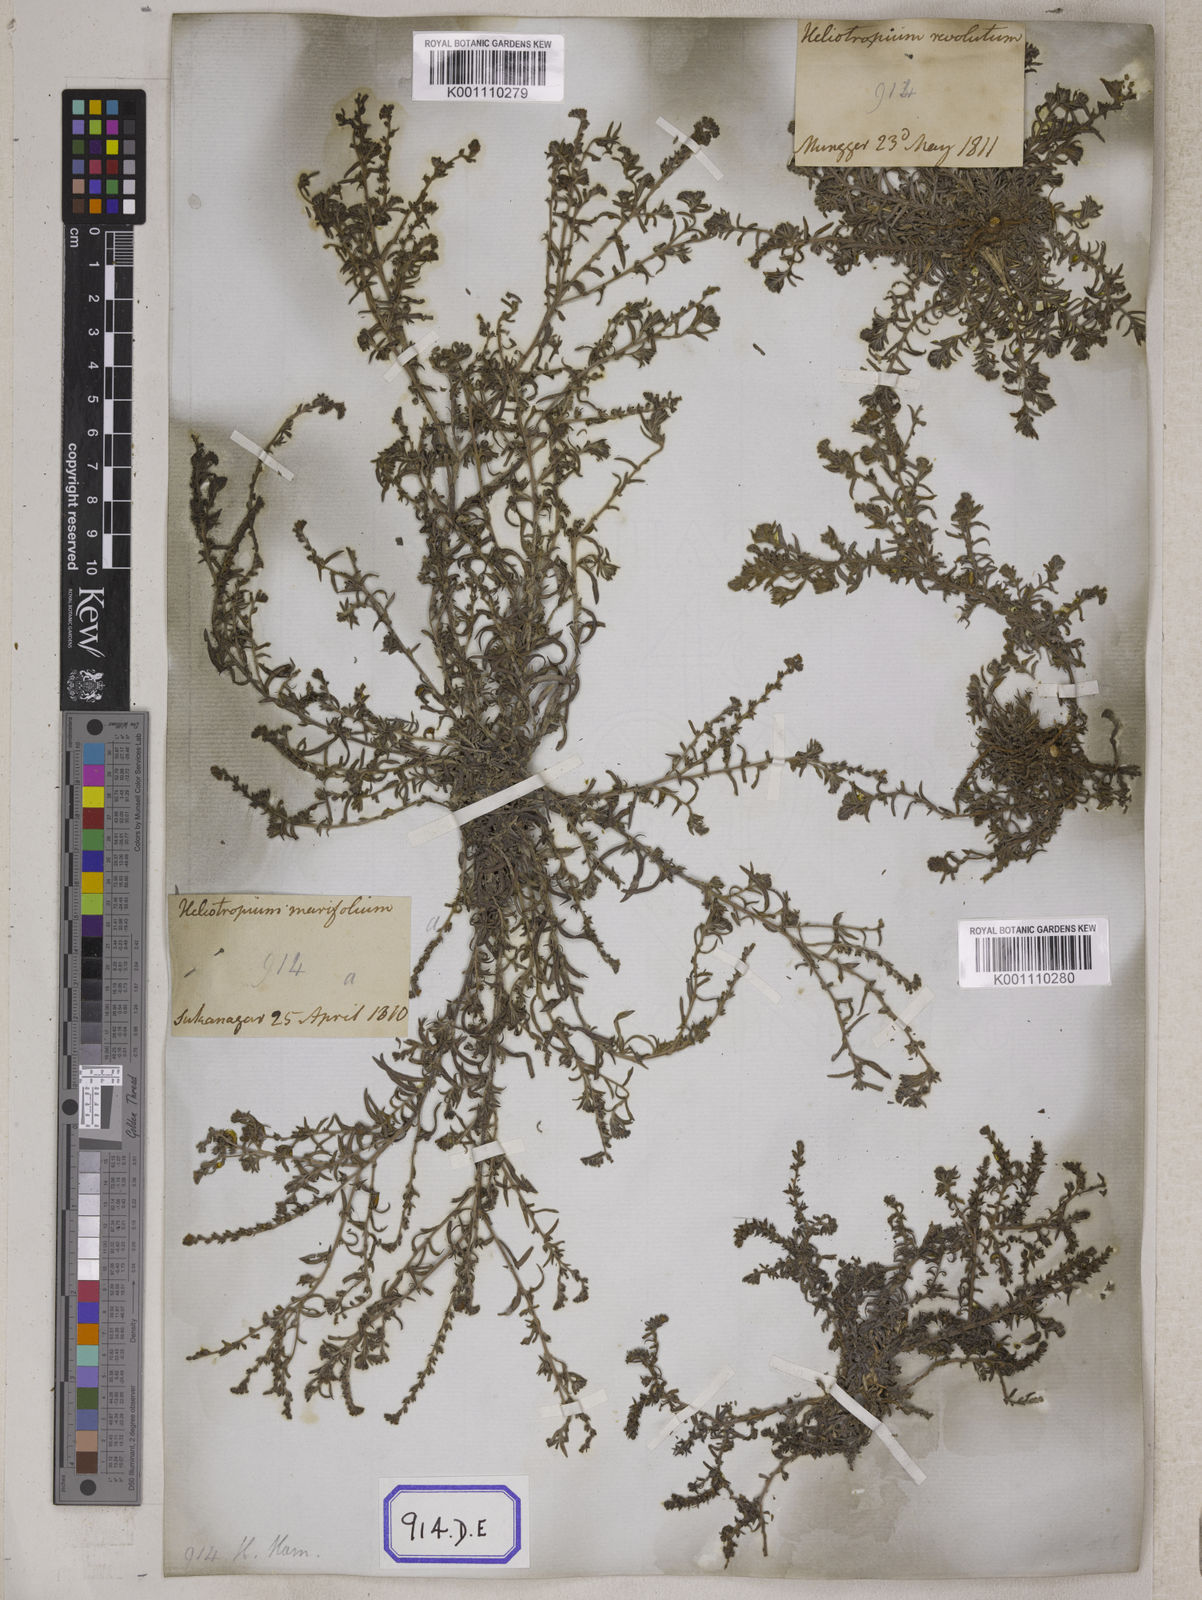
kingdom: Plantae
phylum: Tracheophyta
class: Magnoliopsida
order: Boraginales
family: Heliotropiaceae
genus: Euploca
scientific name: Euploca strigosa
